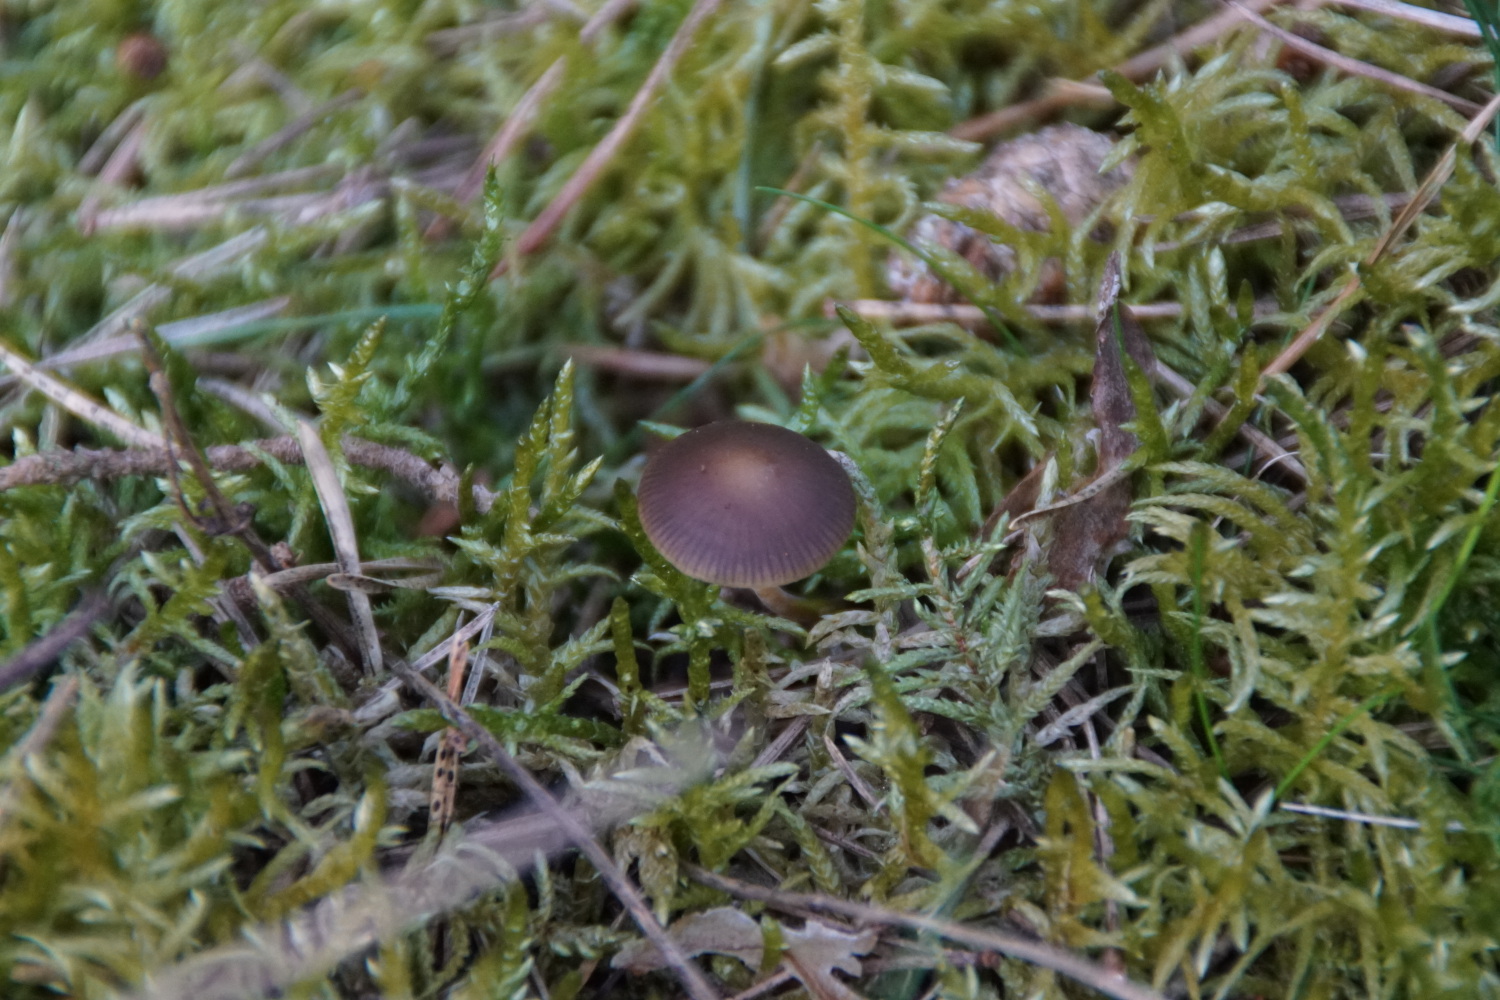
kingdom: Fungi
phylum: Basidiomycota
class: Agaricomycetes
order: Agaricales
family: Physalacriaceae
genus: Strobilurus
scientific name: Strobilurus tenacellus
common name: sommer-koglehat
